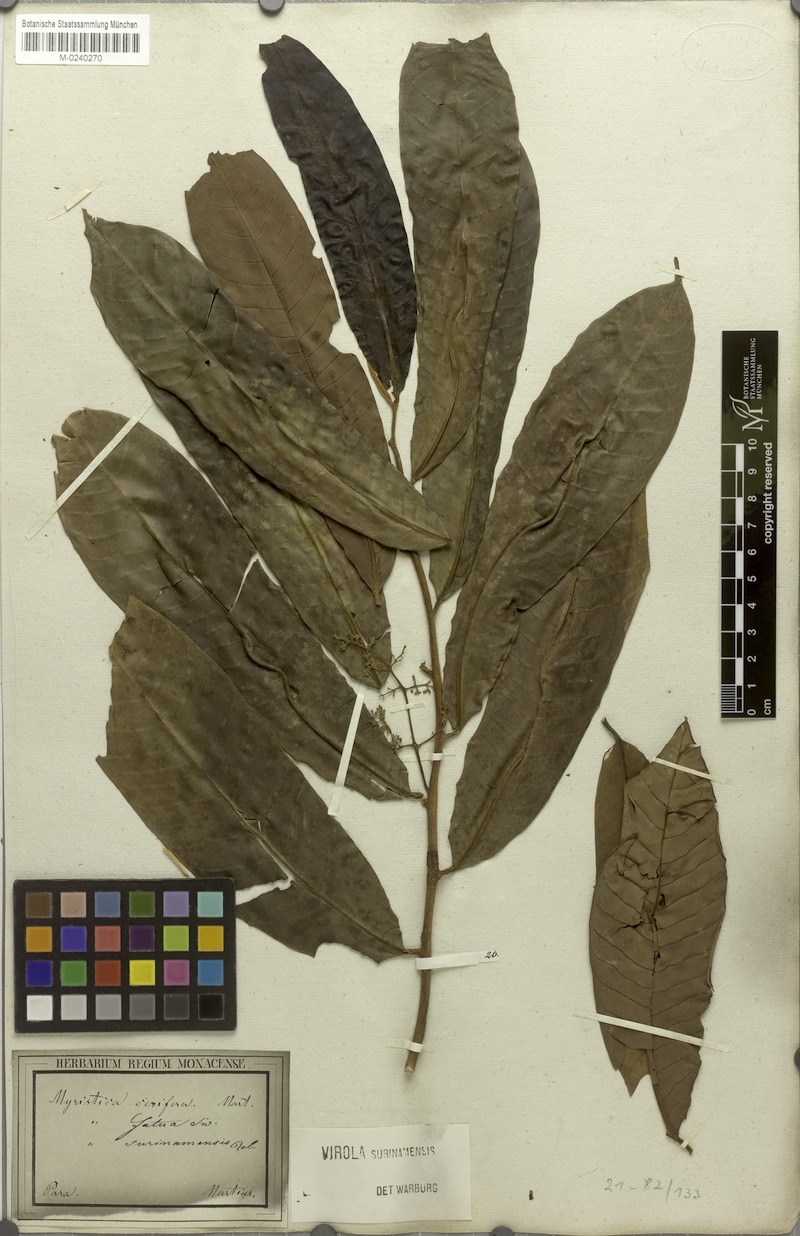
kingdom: Plantae
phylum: Tracheophyta
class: Magnoliopsida
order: Magnoliales
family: Myristicaceae
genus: Virola
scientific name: Virola surinamensis
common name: Baboonwood
